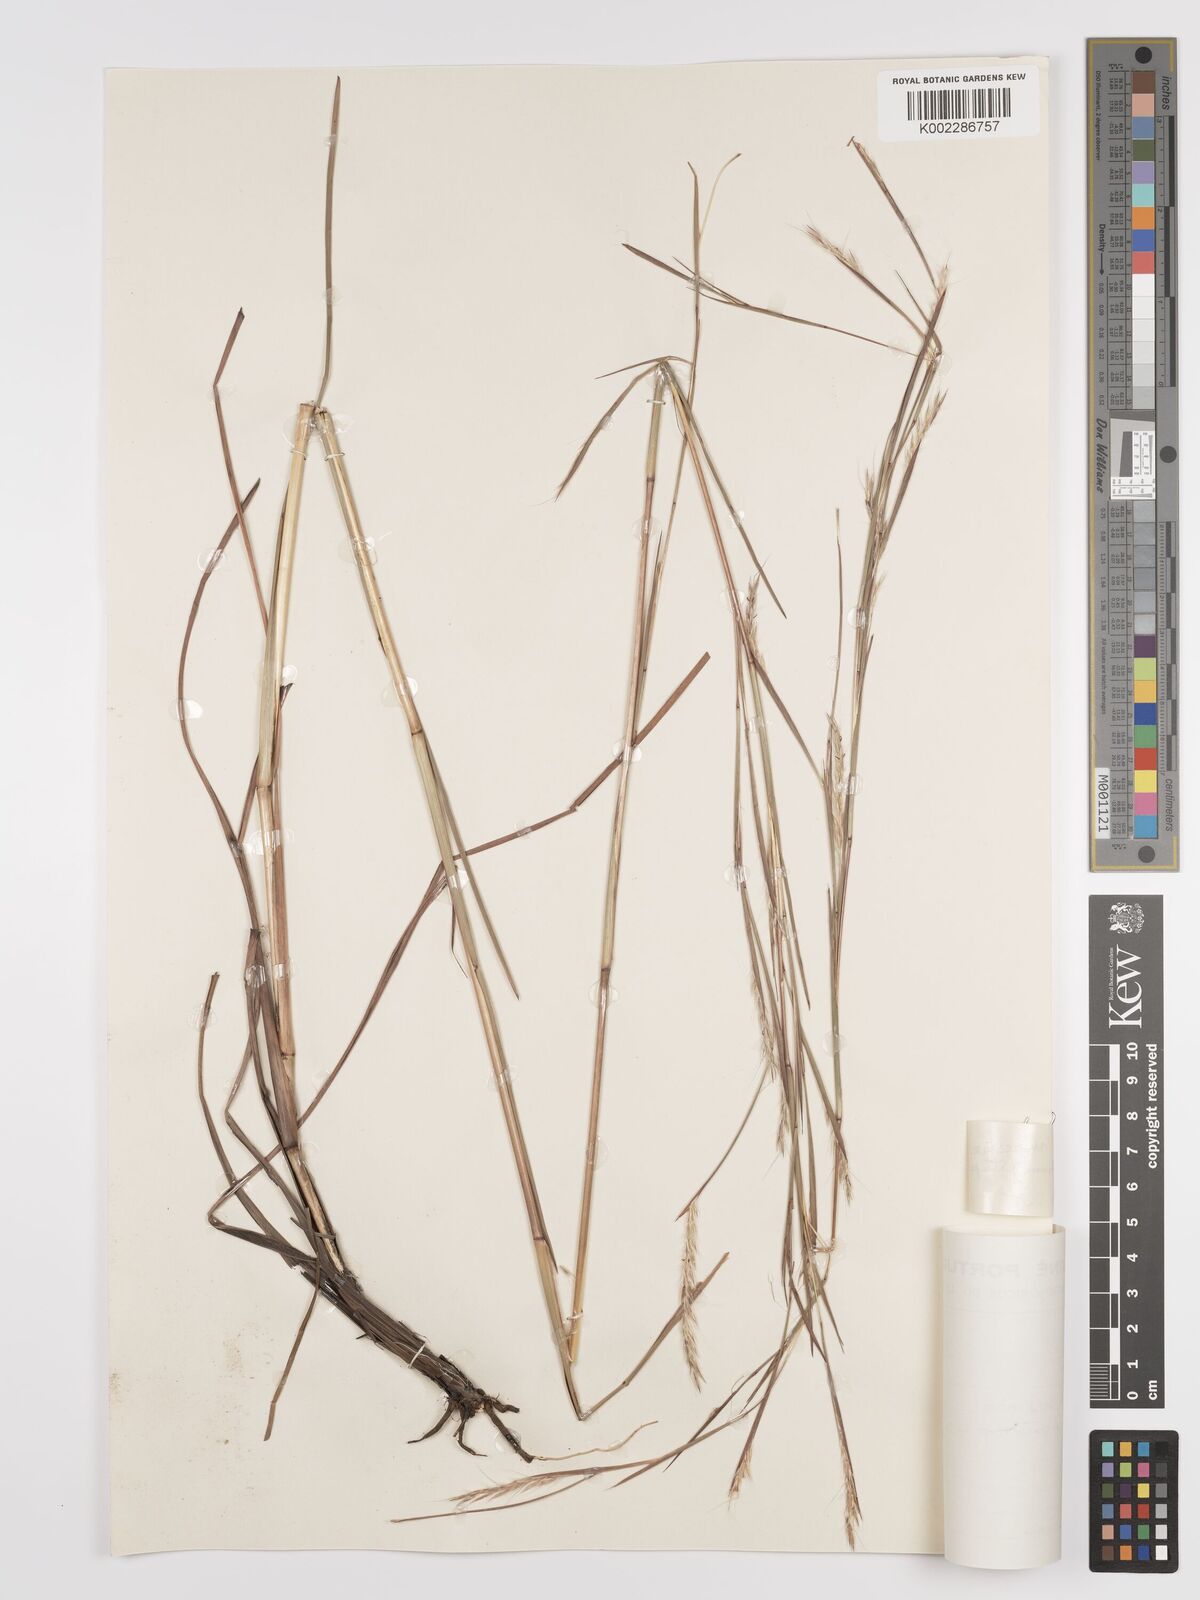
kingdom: Plantae
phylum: Tracheophyta
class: Liliopsida
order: Poales
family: Poaceae
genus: Andropogon
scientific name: Andropogon rupestris
